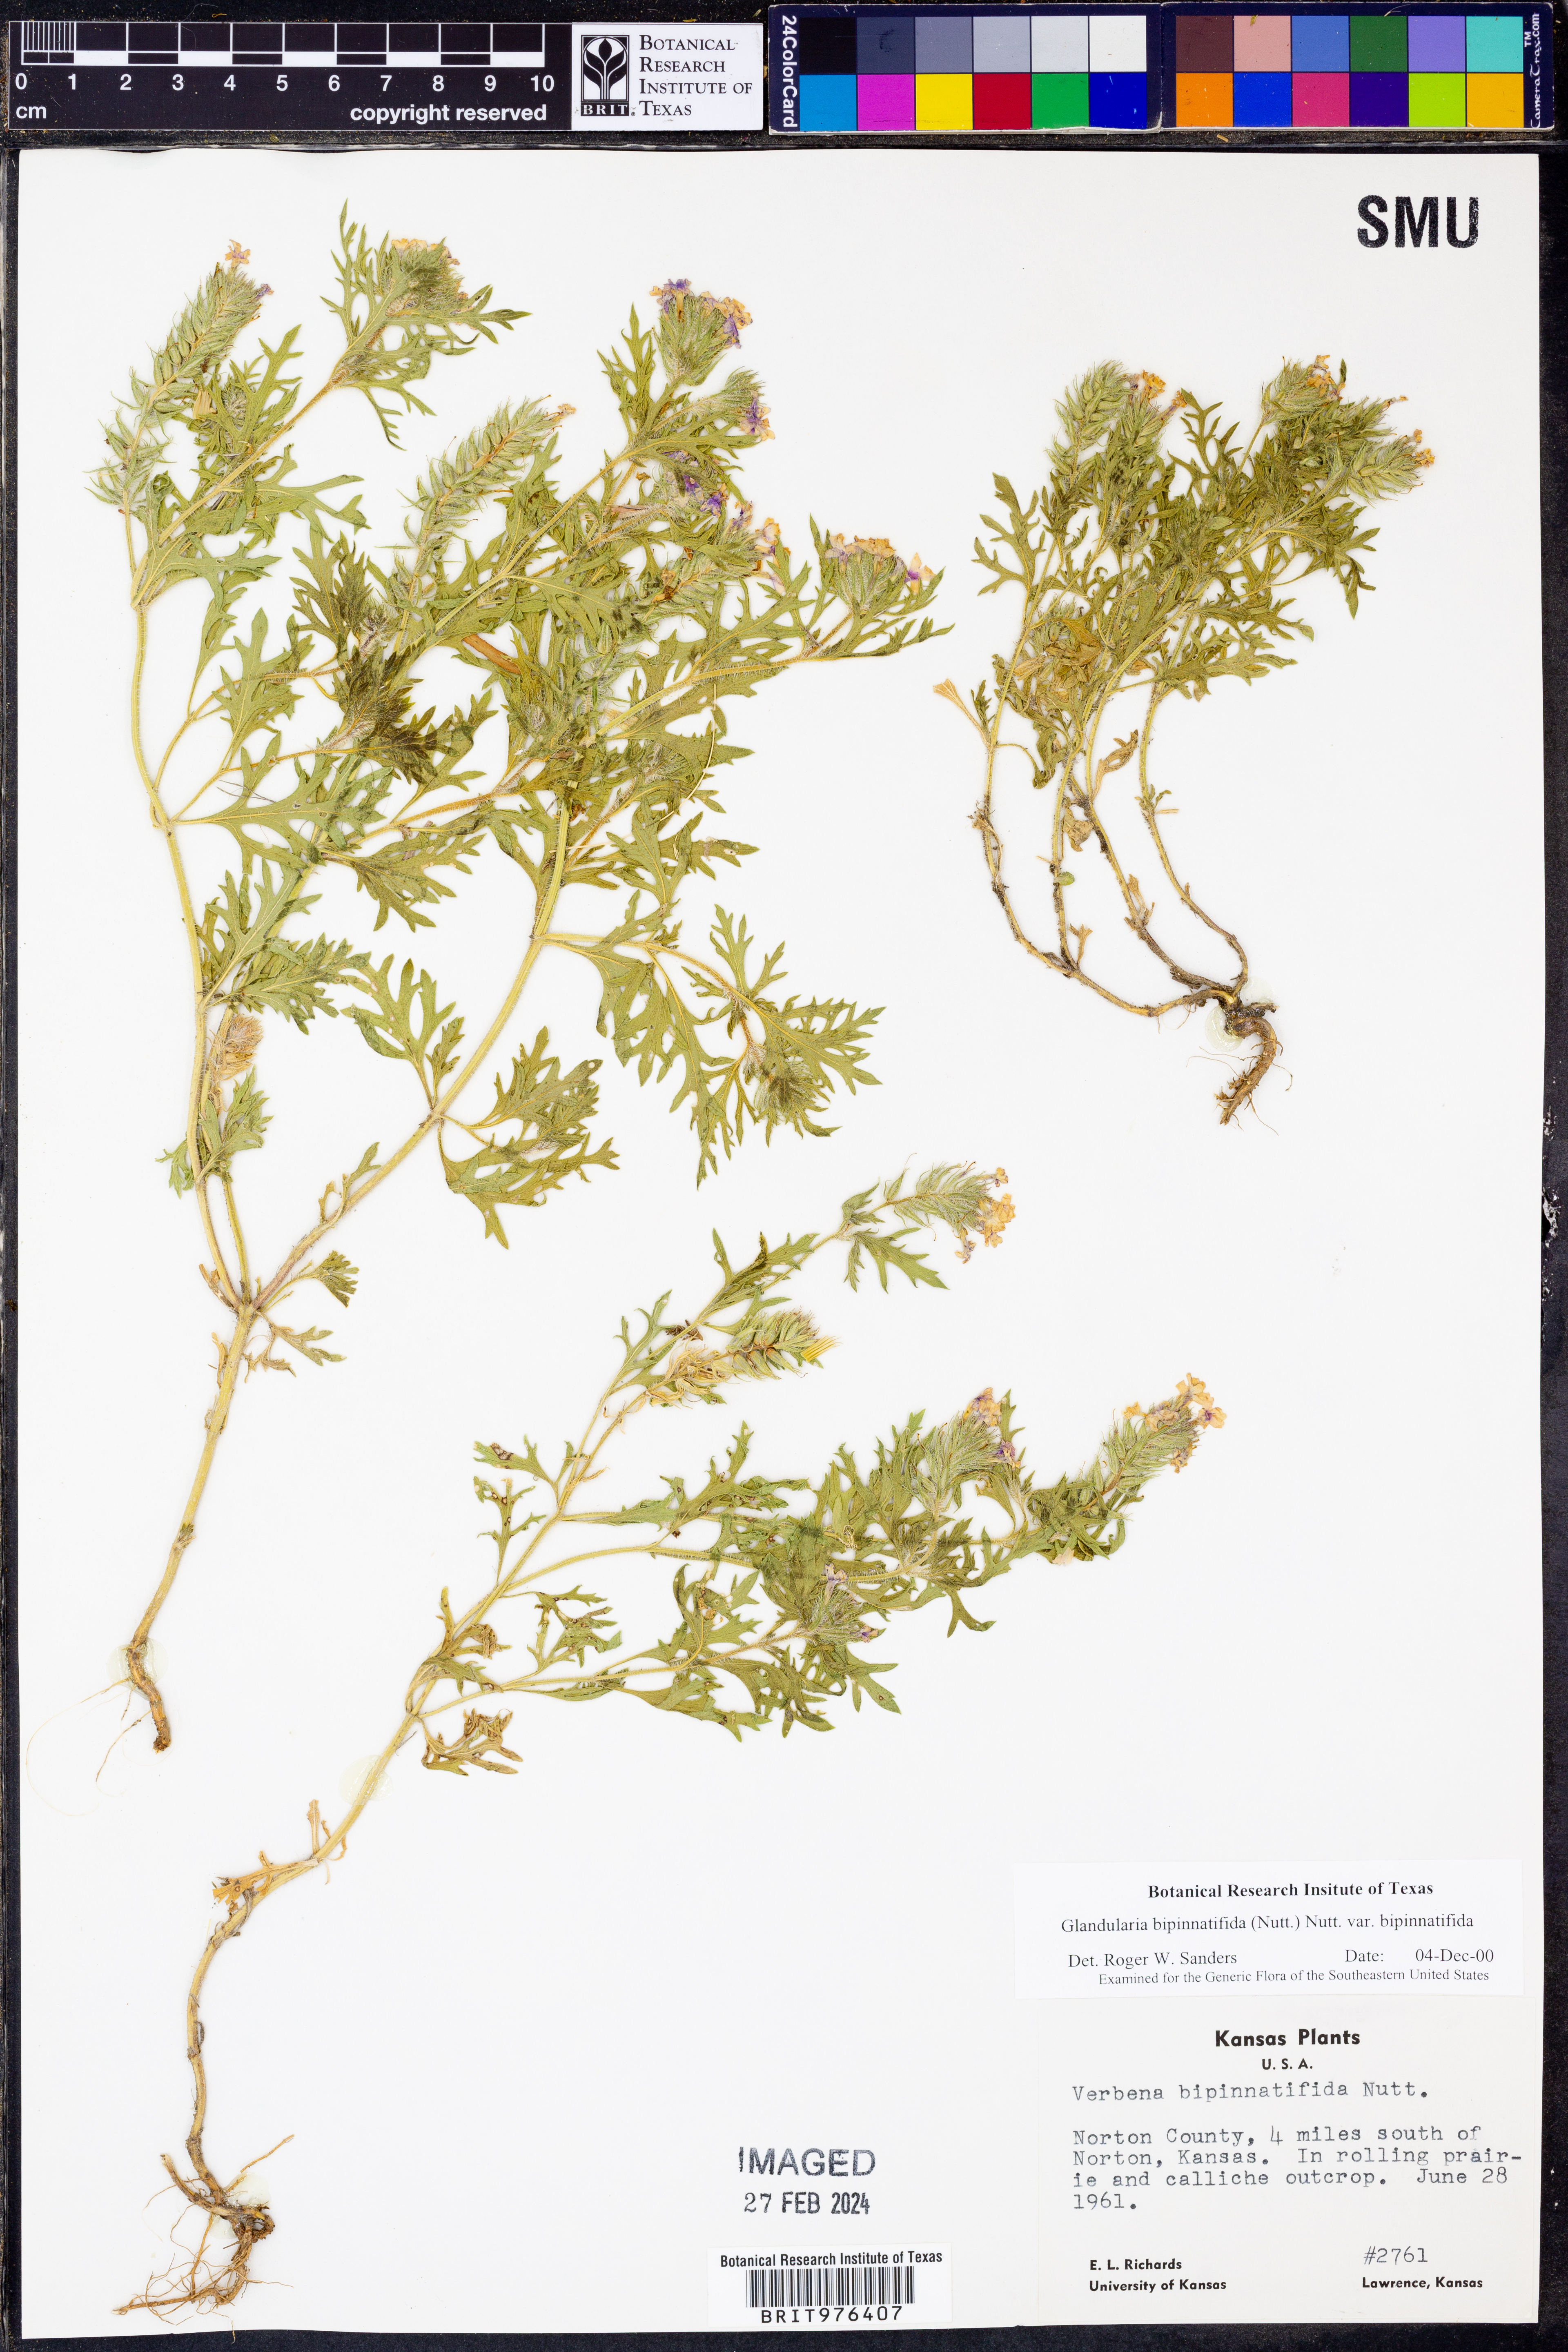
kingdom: Plantae
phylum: Tracheophyta
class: Magnoliopsida
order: Lamiales
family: Verbenaceae
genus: Verbena
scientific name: Verbena bipinnatifida
